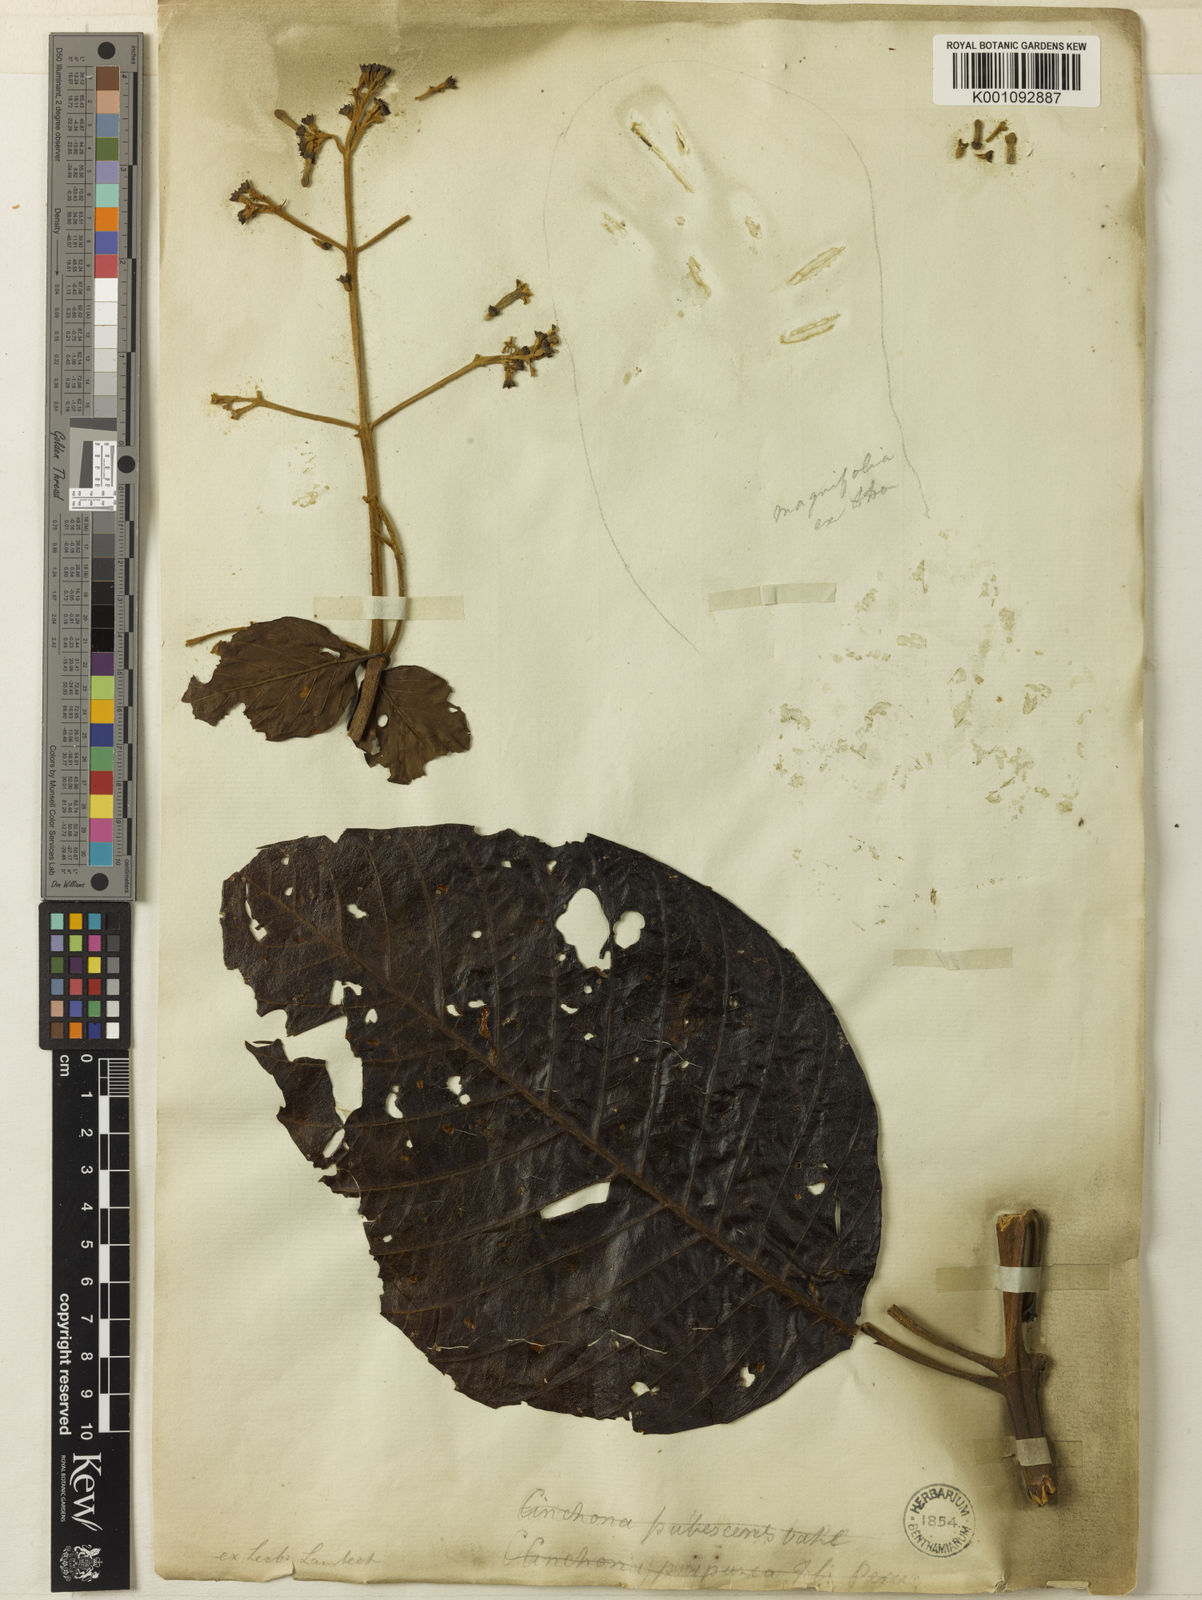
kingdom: Plantae
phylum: Tracheophyta
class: Magnoliopsida
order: Gentianales
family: Rubiaceae
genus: Cinchona
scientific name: Cinchona pubescens
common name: Quinine
